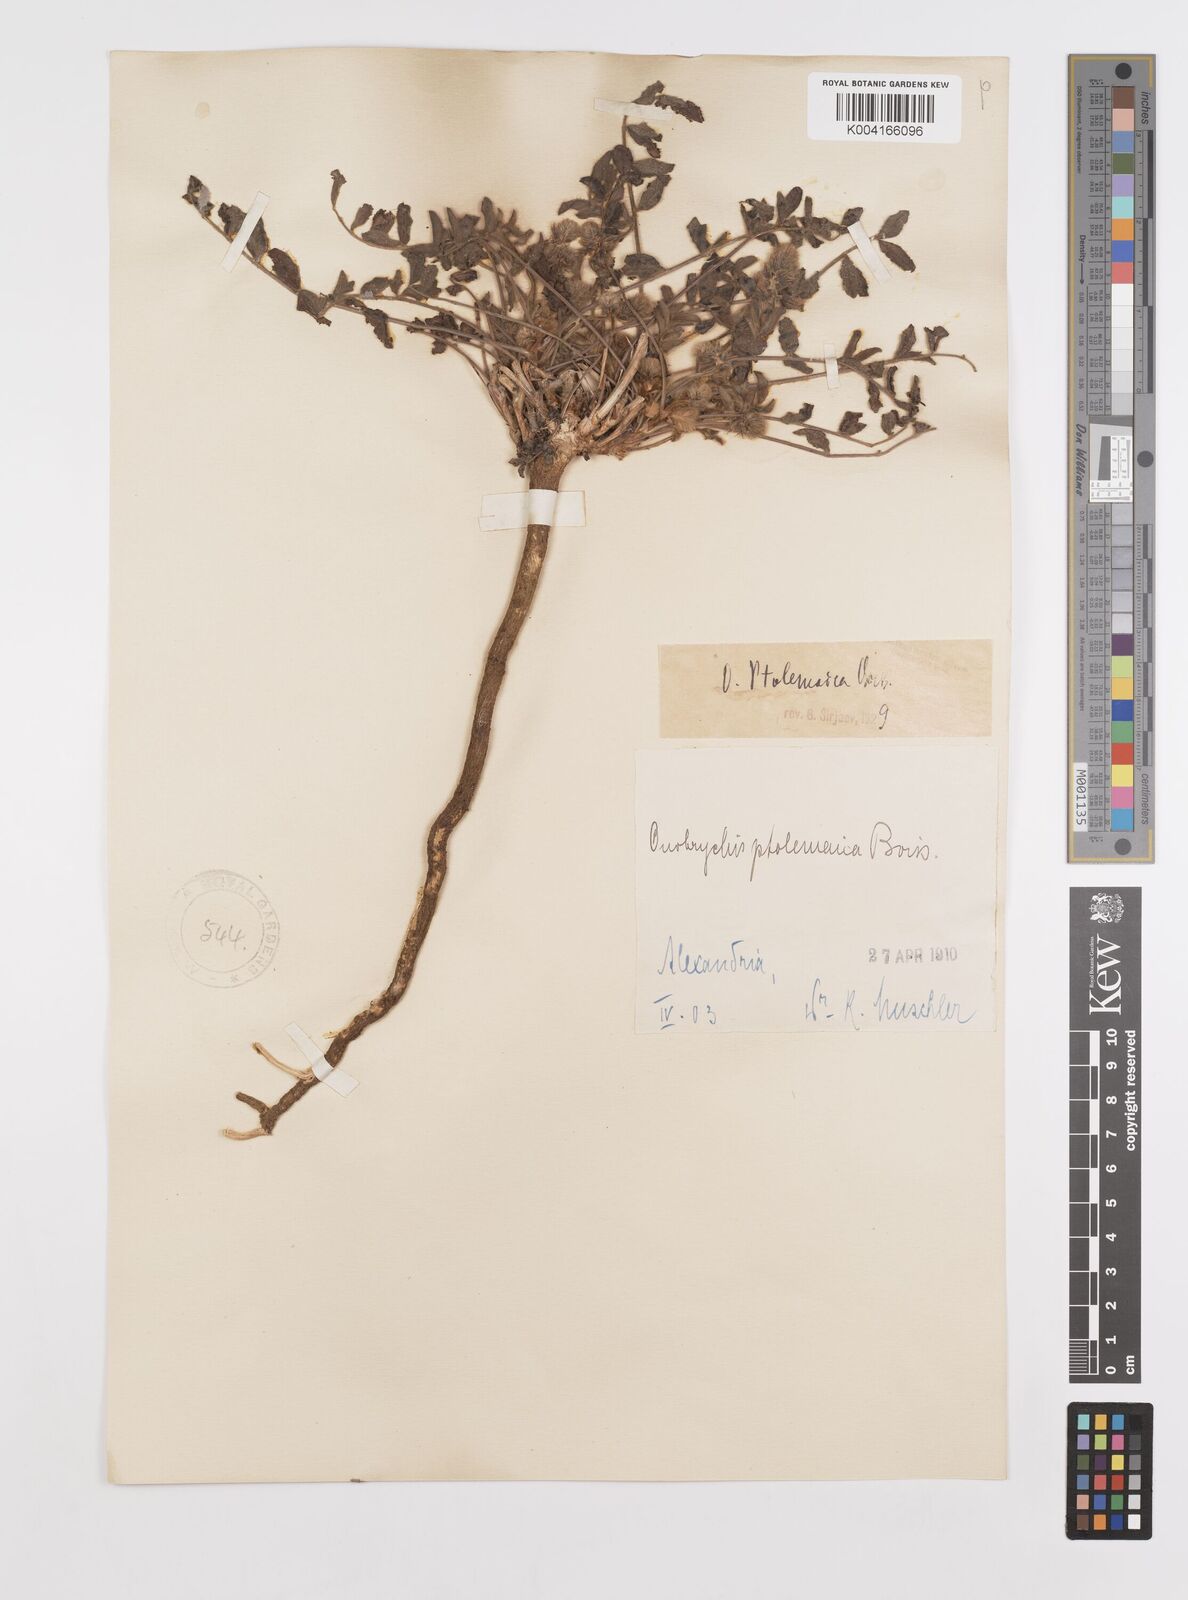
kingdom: Plantae
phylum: Tracheophyta
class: Magnoliopsida
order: Fabales
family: Fabaceae
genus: Onobrychis
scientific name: Onobrychis ptolemaica
